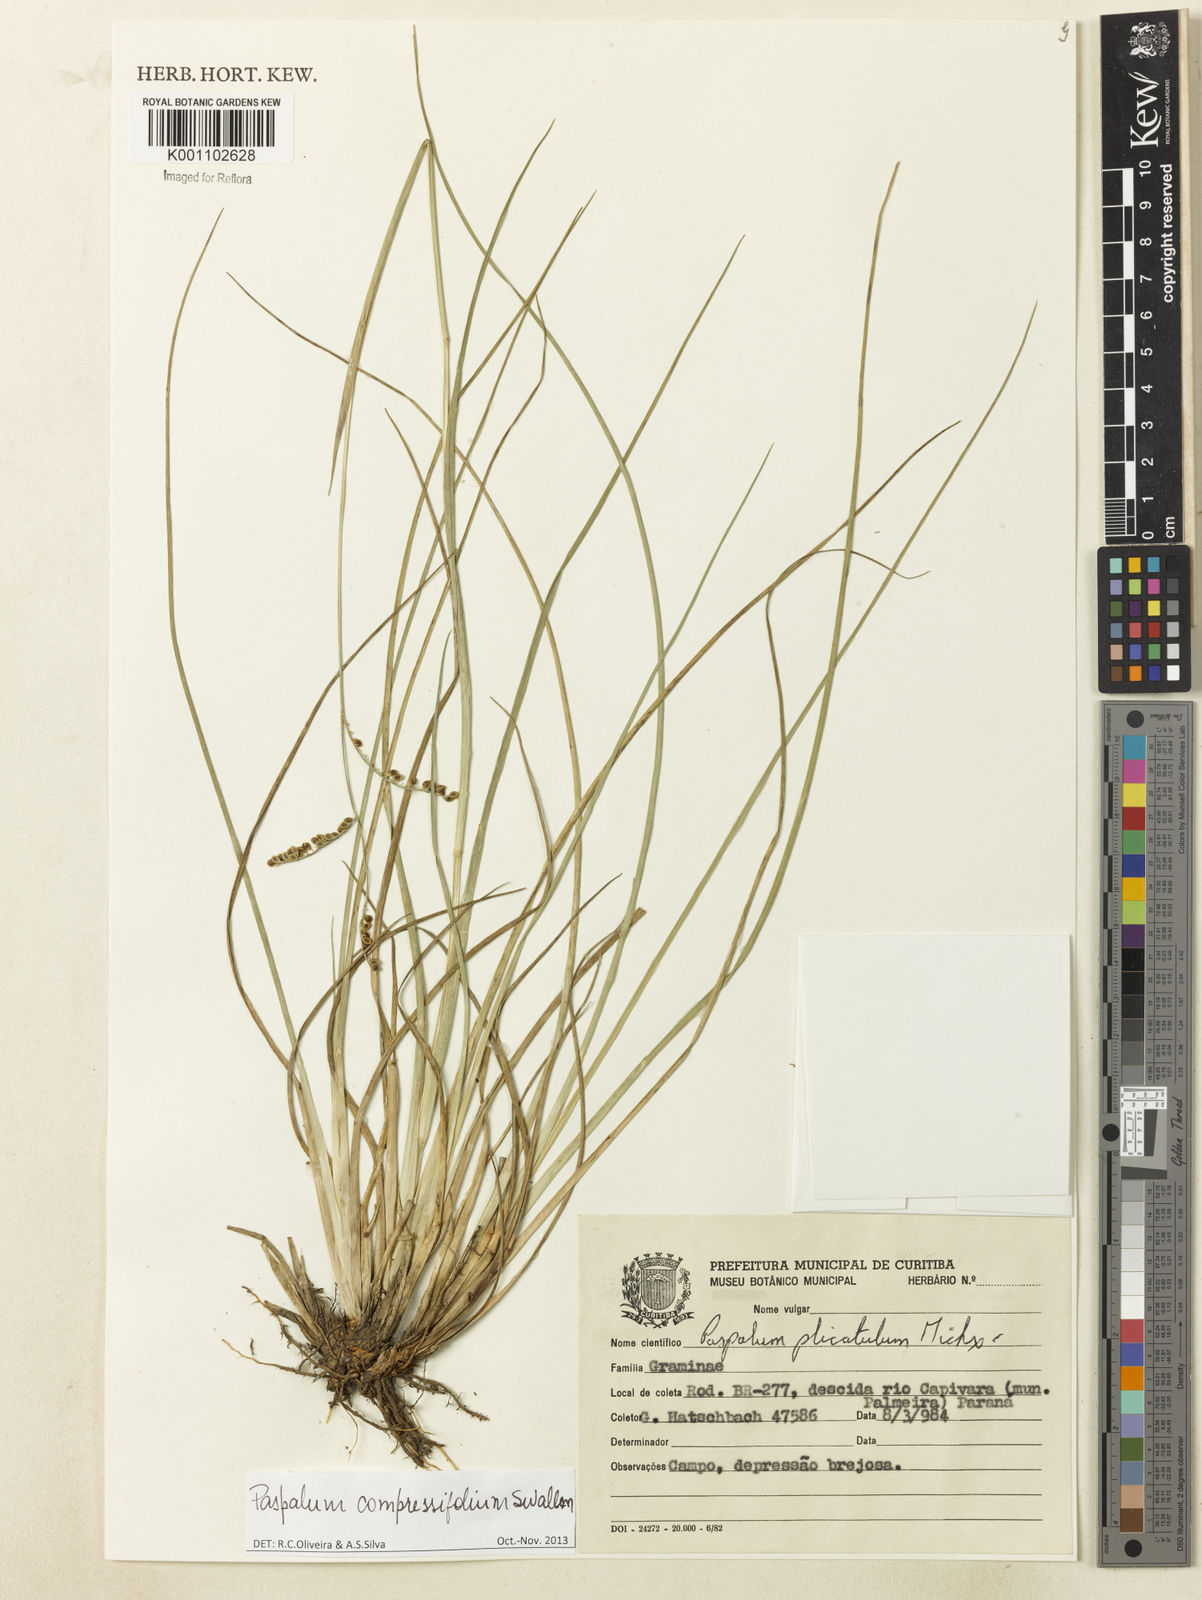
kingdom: Plantae
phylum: Tracheophyta
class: Liliopsida
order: Poales
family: Poaceae
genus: Paspalum
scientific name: Paspalum compressifolium
